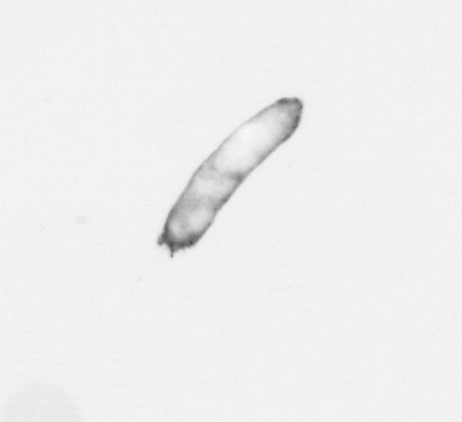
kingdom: Chromista
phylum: Ochrophyta
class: Bacillariophyceae
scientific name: Bacillariophyceae
